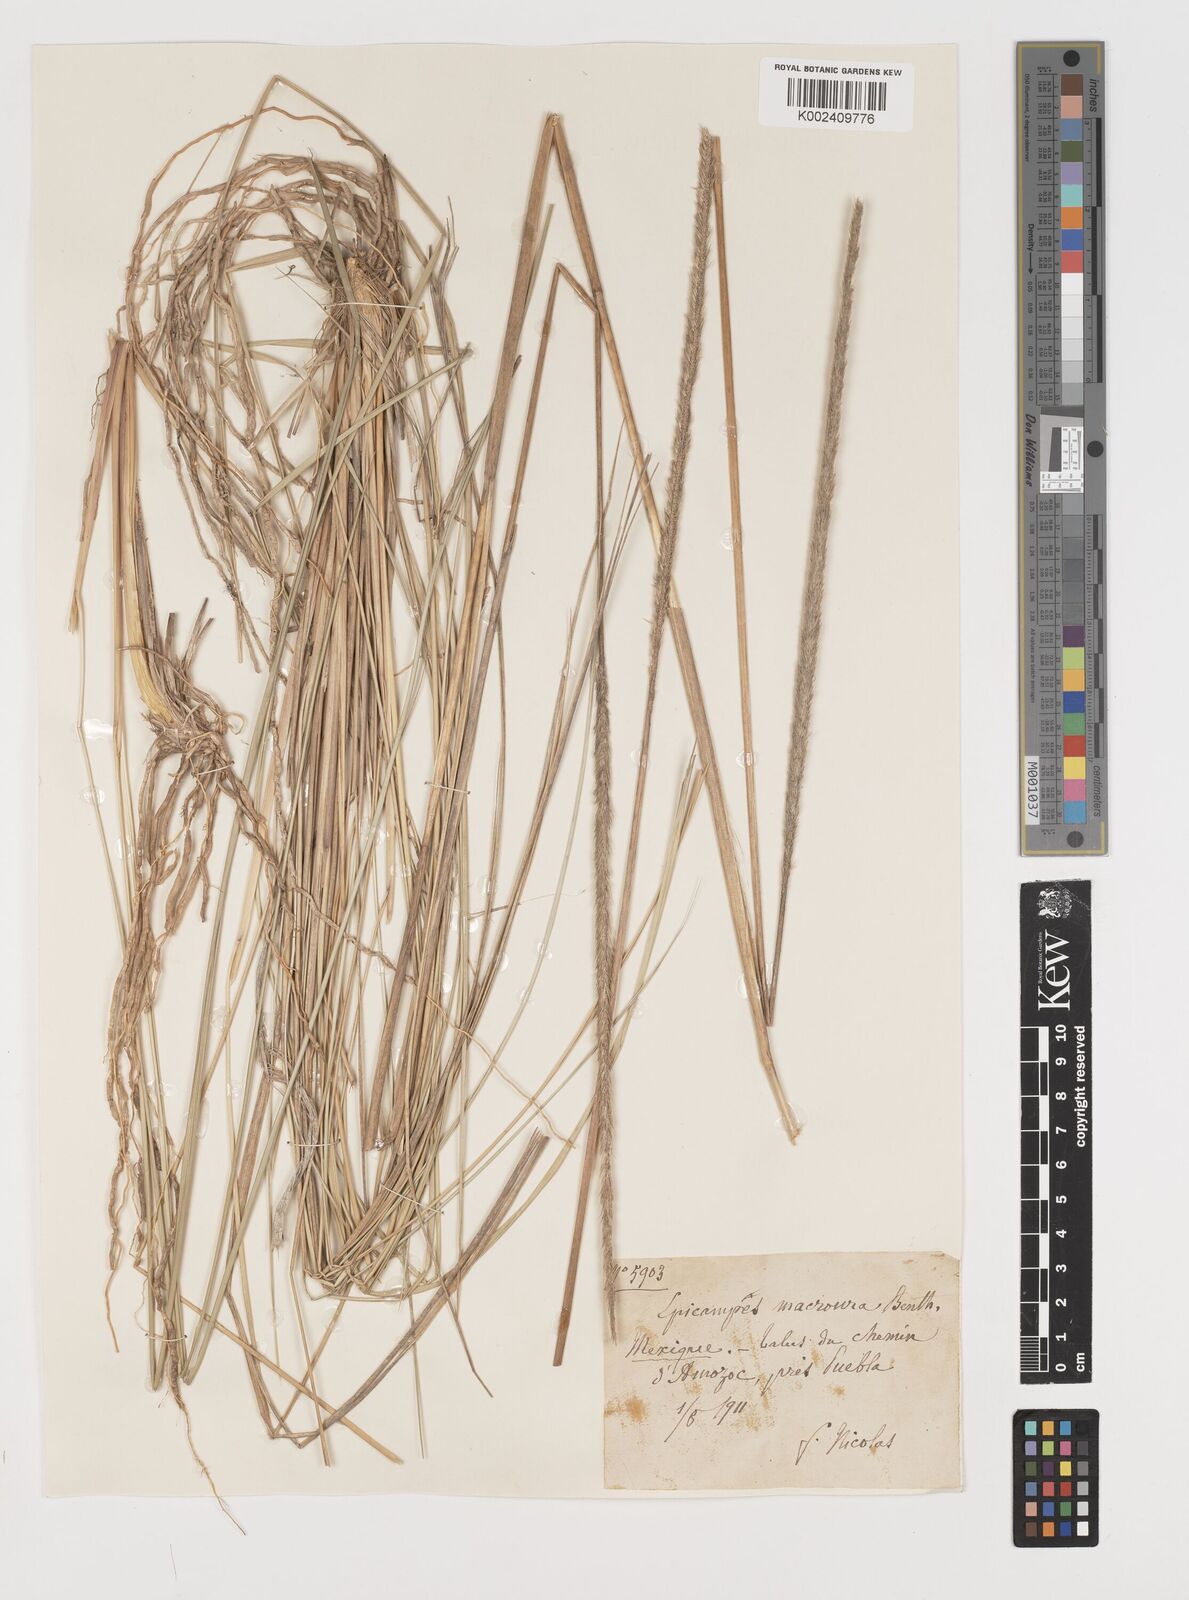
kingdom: Plantae
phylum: Tracheophyta
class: Liliopsida
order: Poales
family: Poaceae
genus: Muhlenbergia
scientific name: Muhlenbergia macroura
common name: Mexican broomroot
